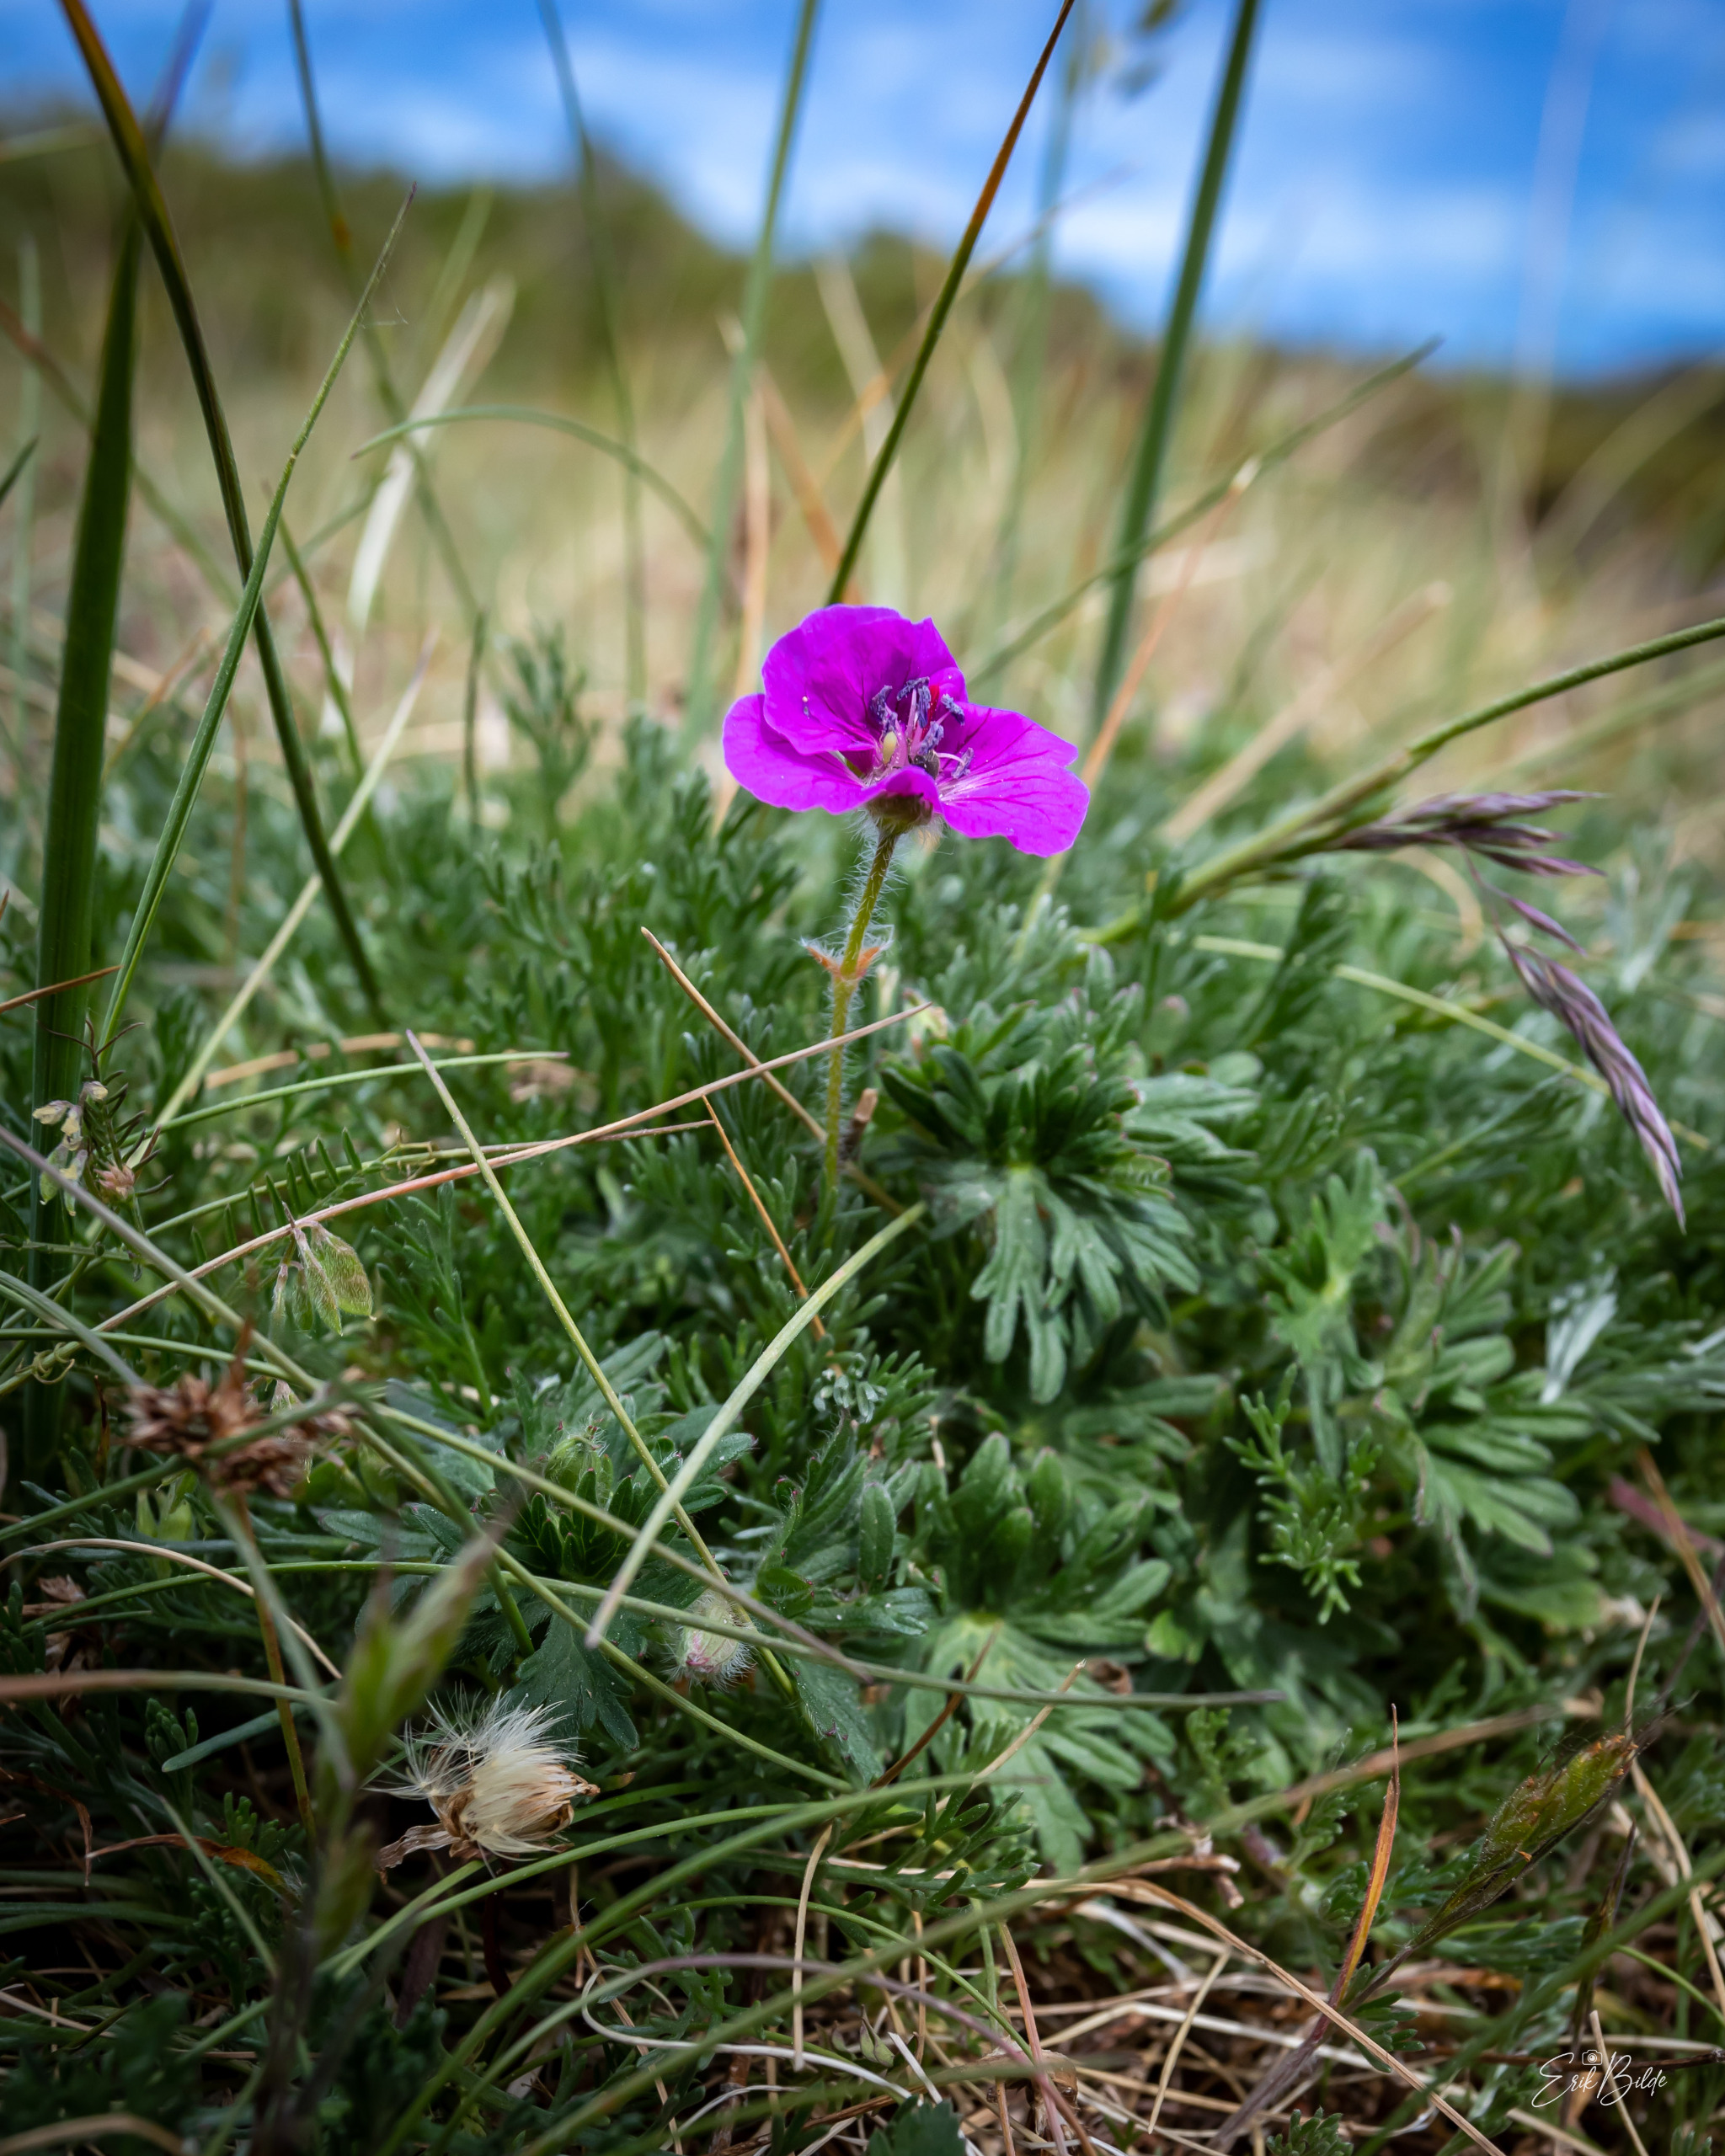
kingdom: Plantae
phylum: Tracheophyta
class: Magnoliopsida
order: Geraniales
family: Geraniaceae
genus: Geranium
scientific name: Geranium sanguineum
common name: Blodrød storkenæb
